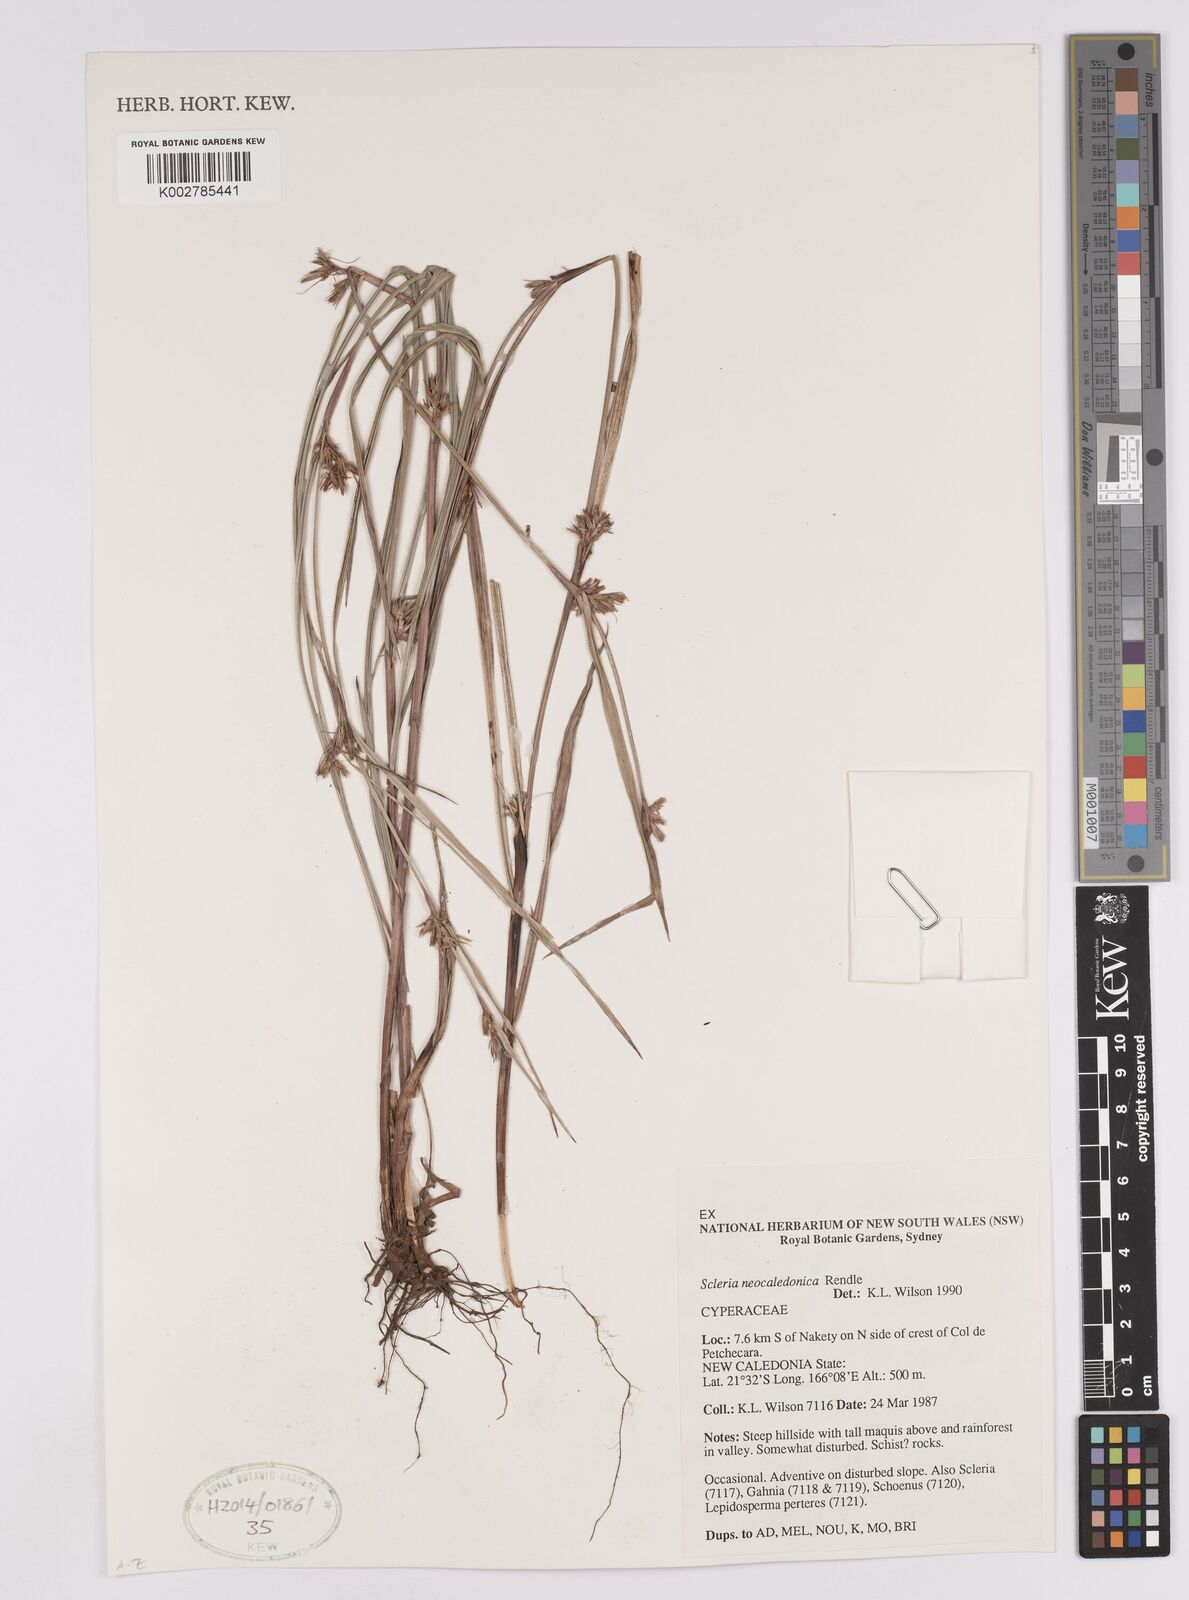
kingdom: Plantae
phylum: Tracheophyta
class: Liliopsida
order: Poales
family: Cyperaceae
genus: Scleria
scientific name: Scleria neocaledonica
